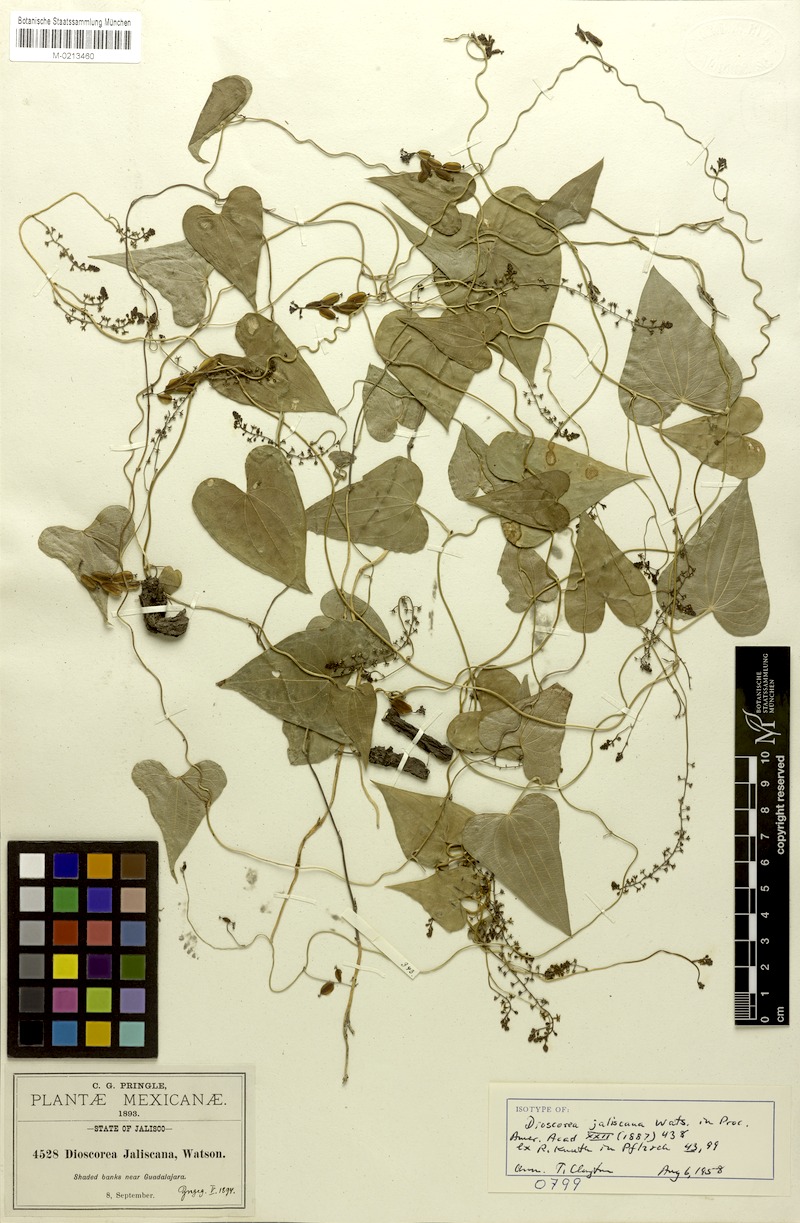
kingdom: Plantae
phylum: Tracheophyta
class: Liliopsida
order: Dioscoreales
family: Dioscoreaceae
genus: Dioscorea
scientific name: Dioscorea jaliscana
